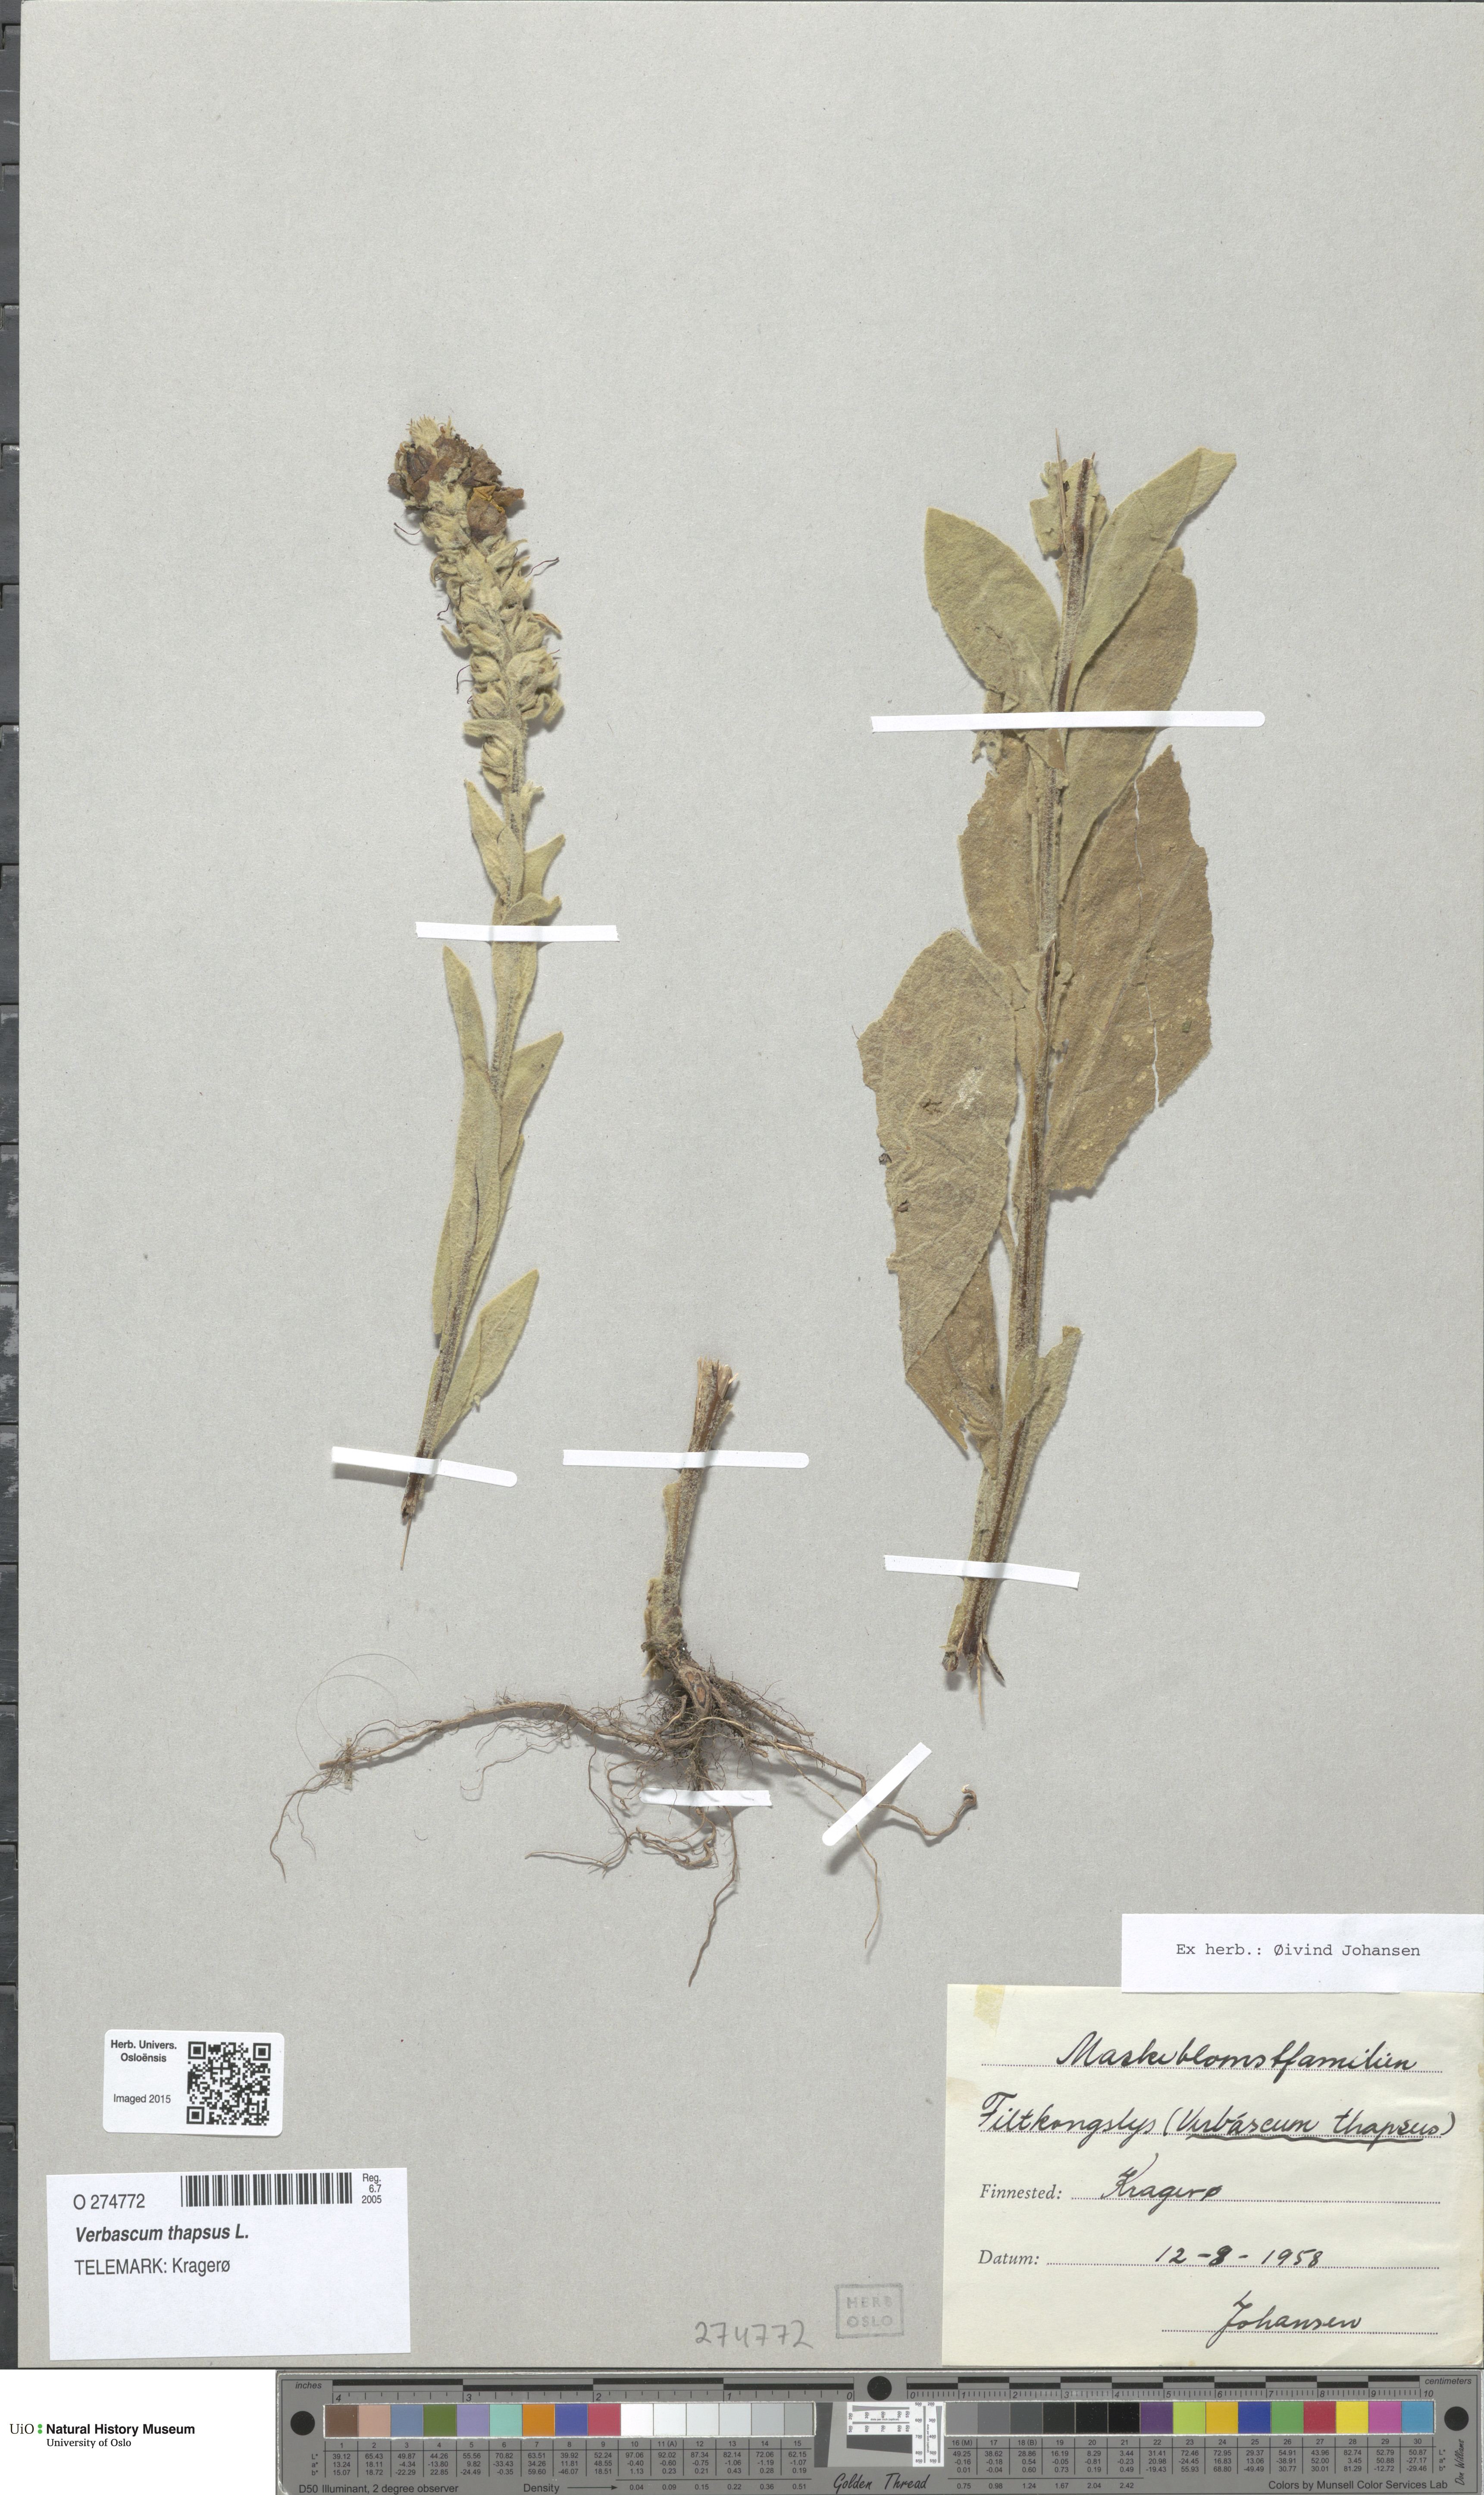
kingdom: Plantae
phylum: Tracheophyta
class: Magnoliopsida
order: Lamiales
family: Scrophulariaceae
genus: Verbascum
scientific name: Verbascum thapsus
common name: Common mullein
